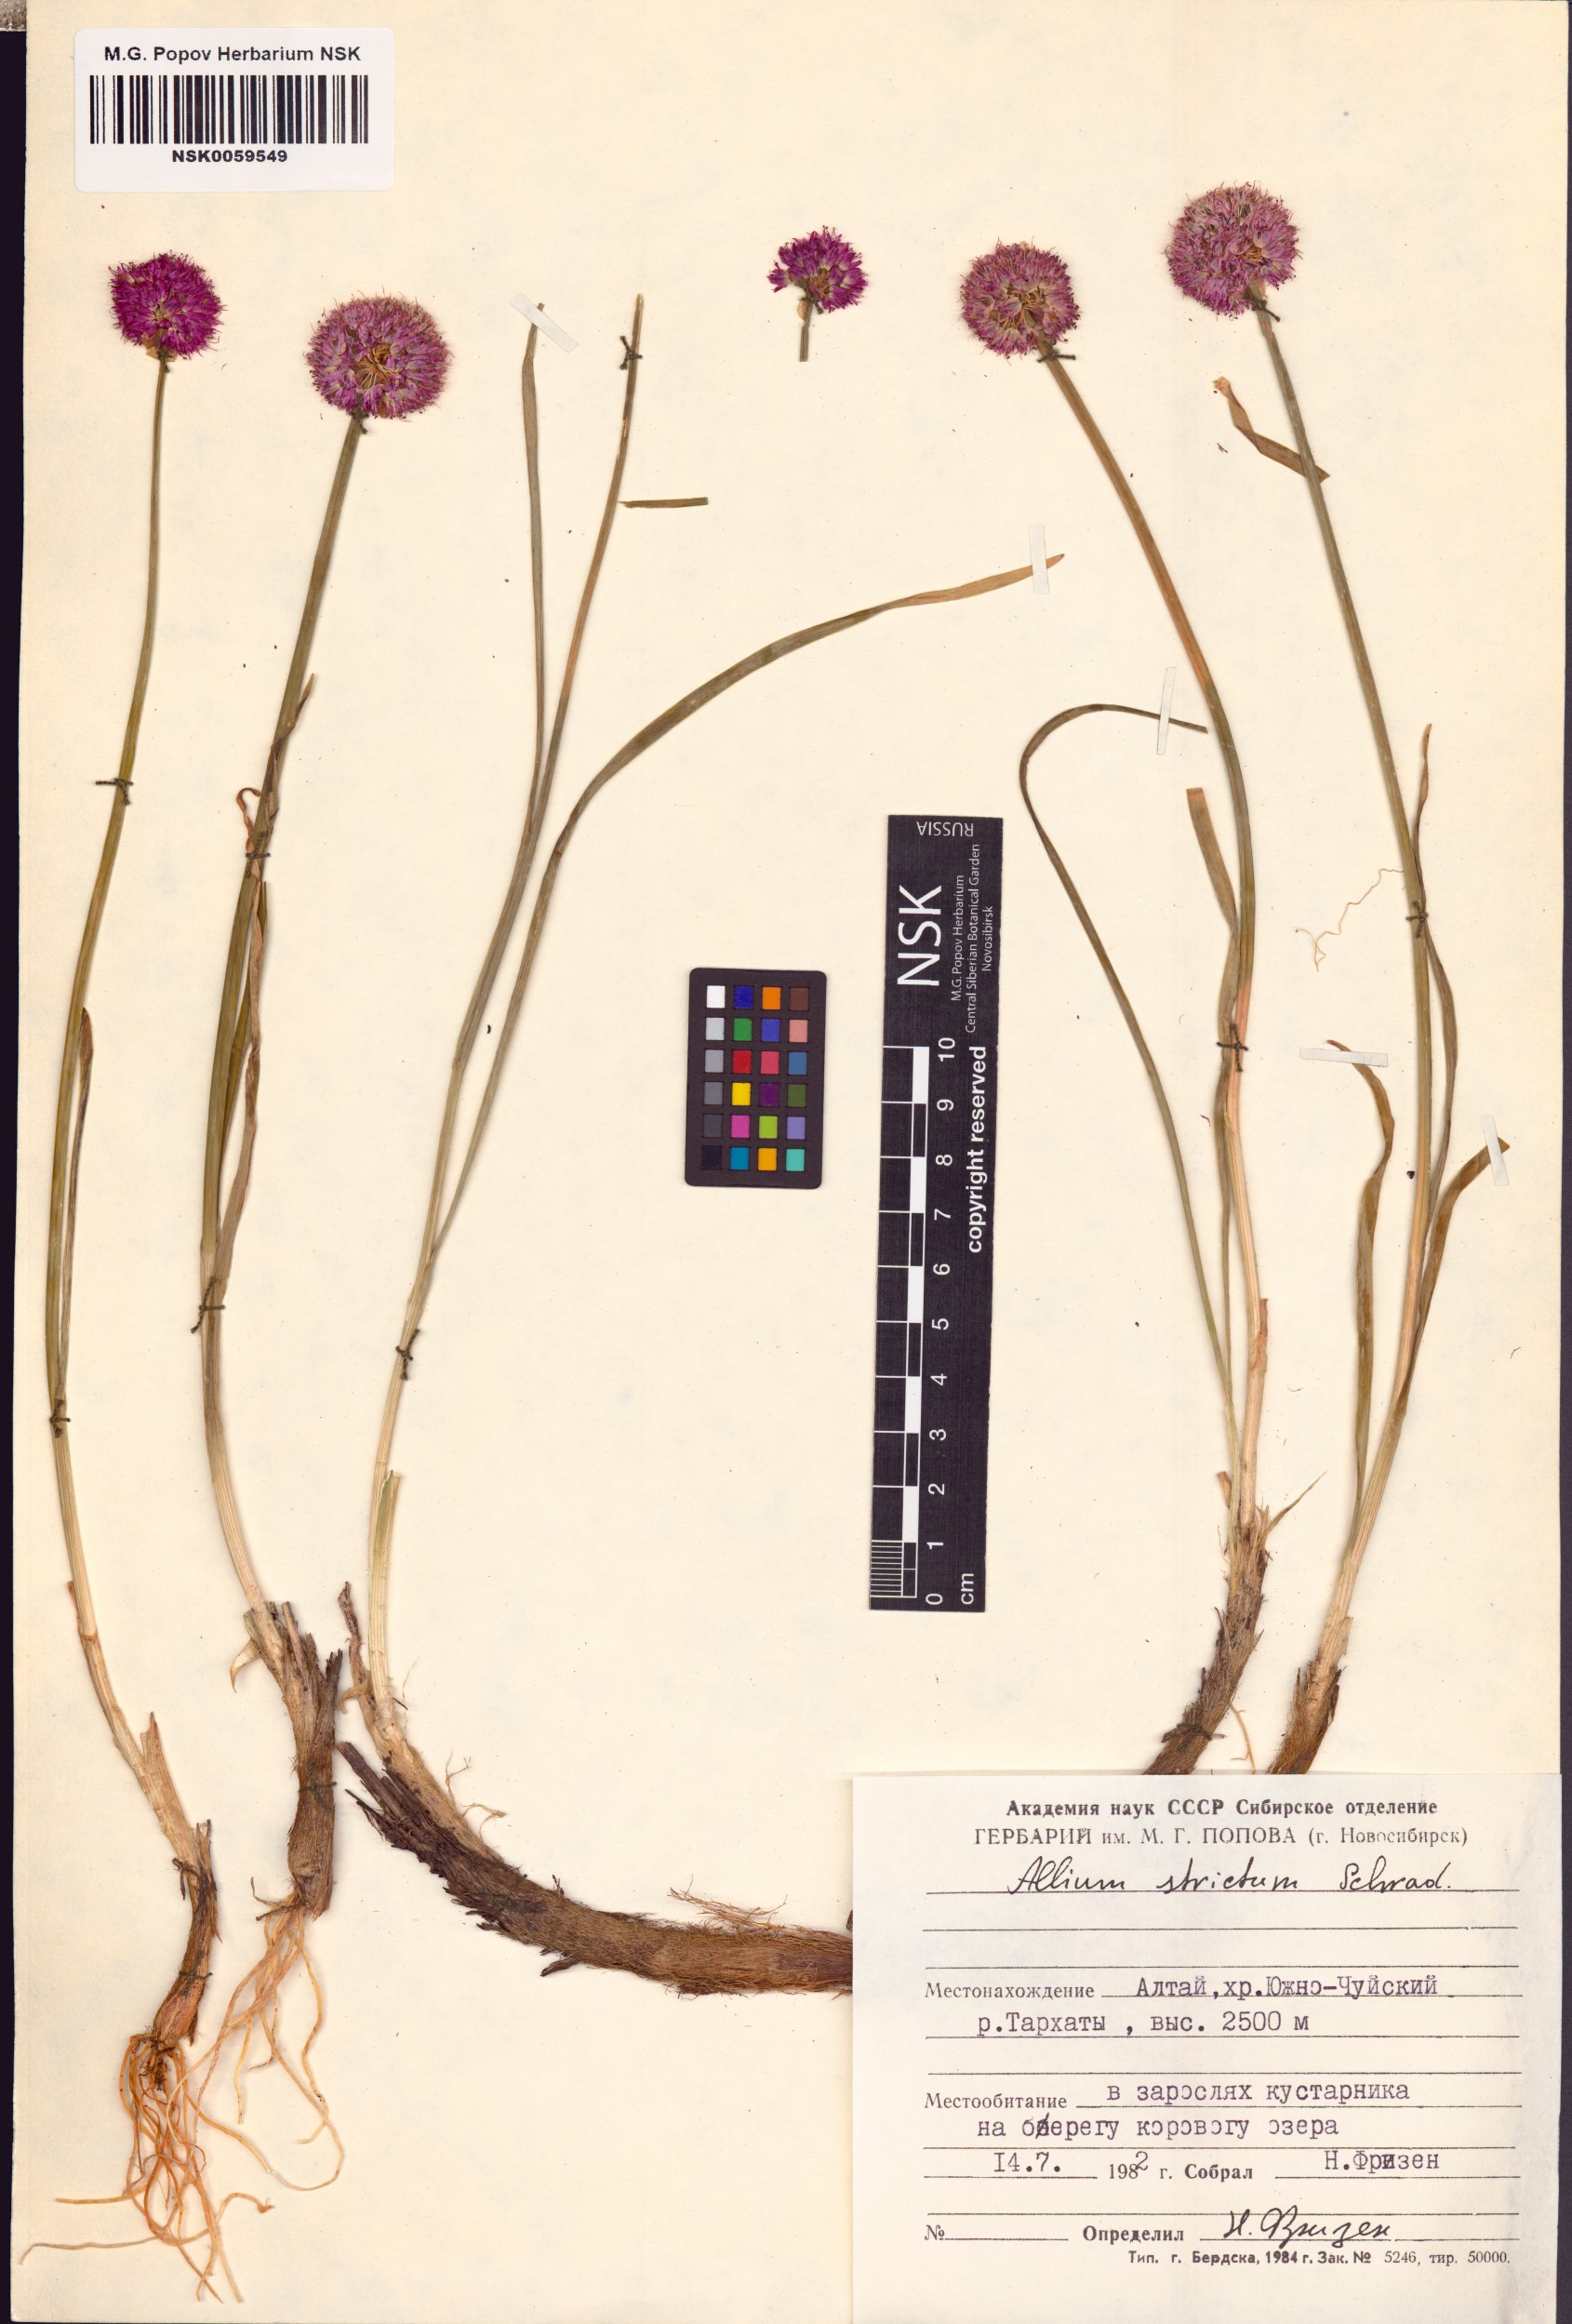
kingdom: Plantae
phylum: Tracheophyta
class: Liliopsida
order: Asparagales
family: Amaryllidaceae
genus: Allium
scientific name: Allium strictum
